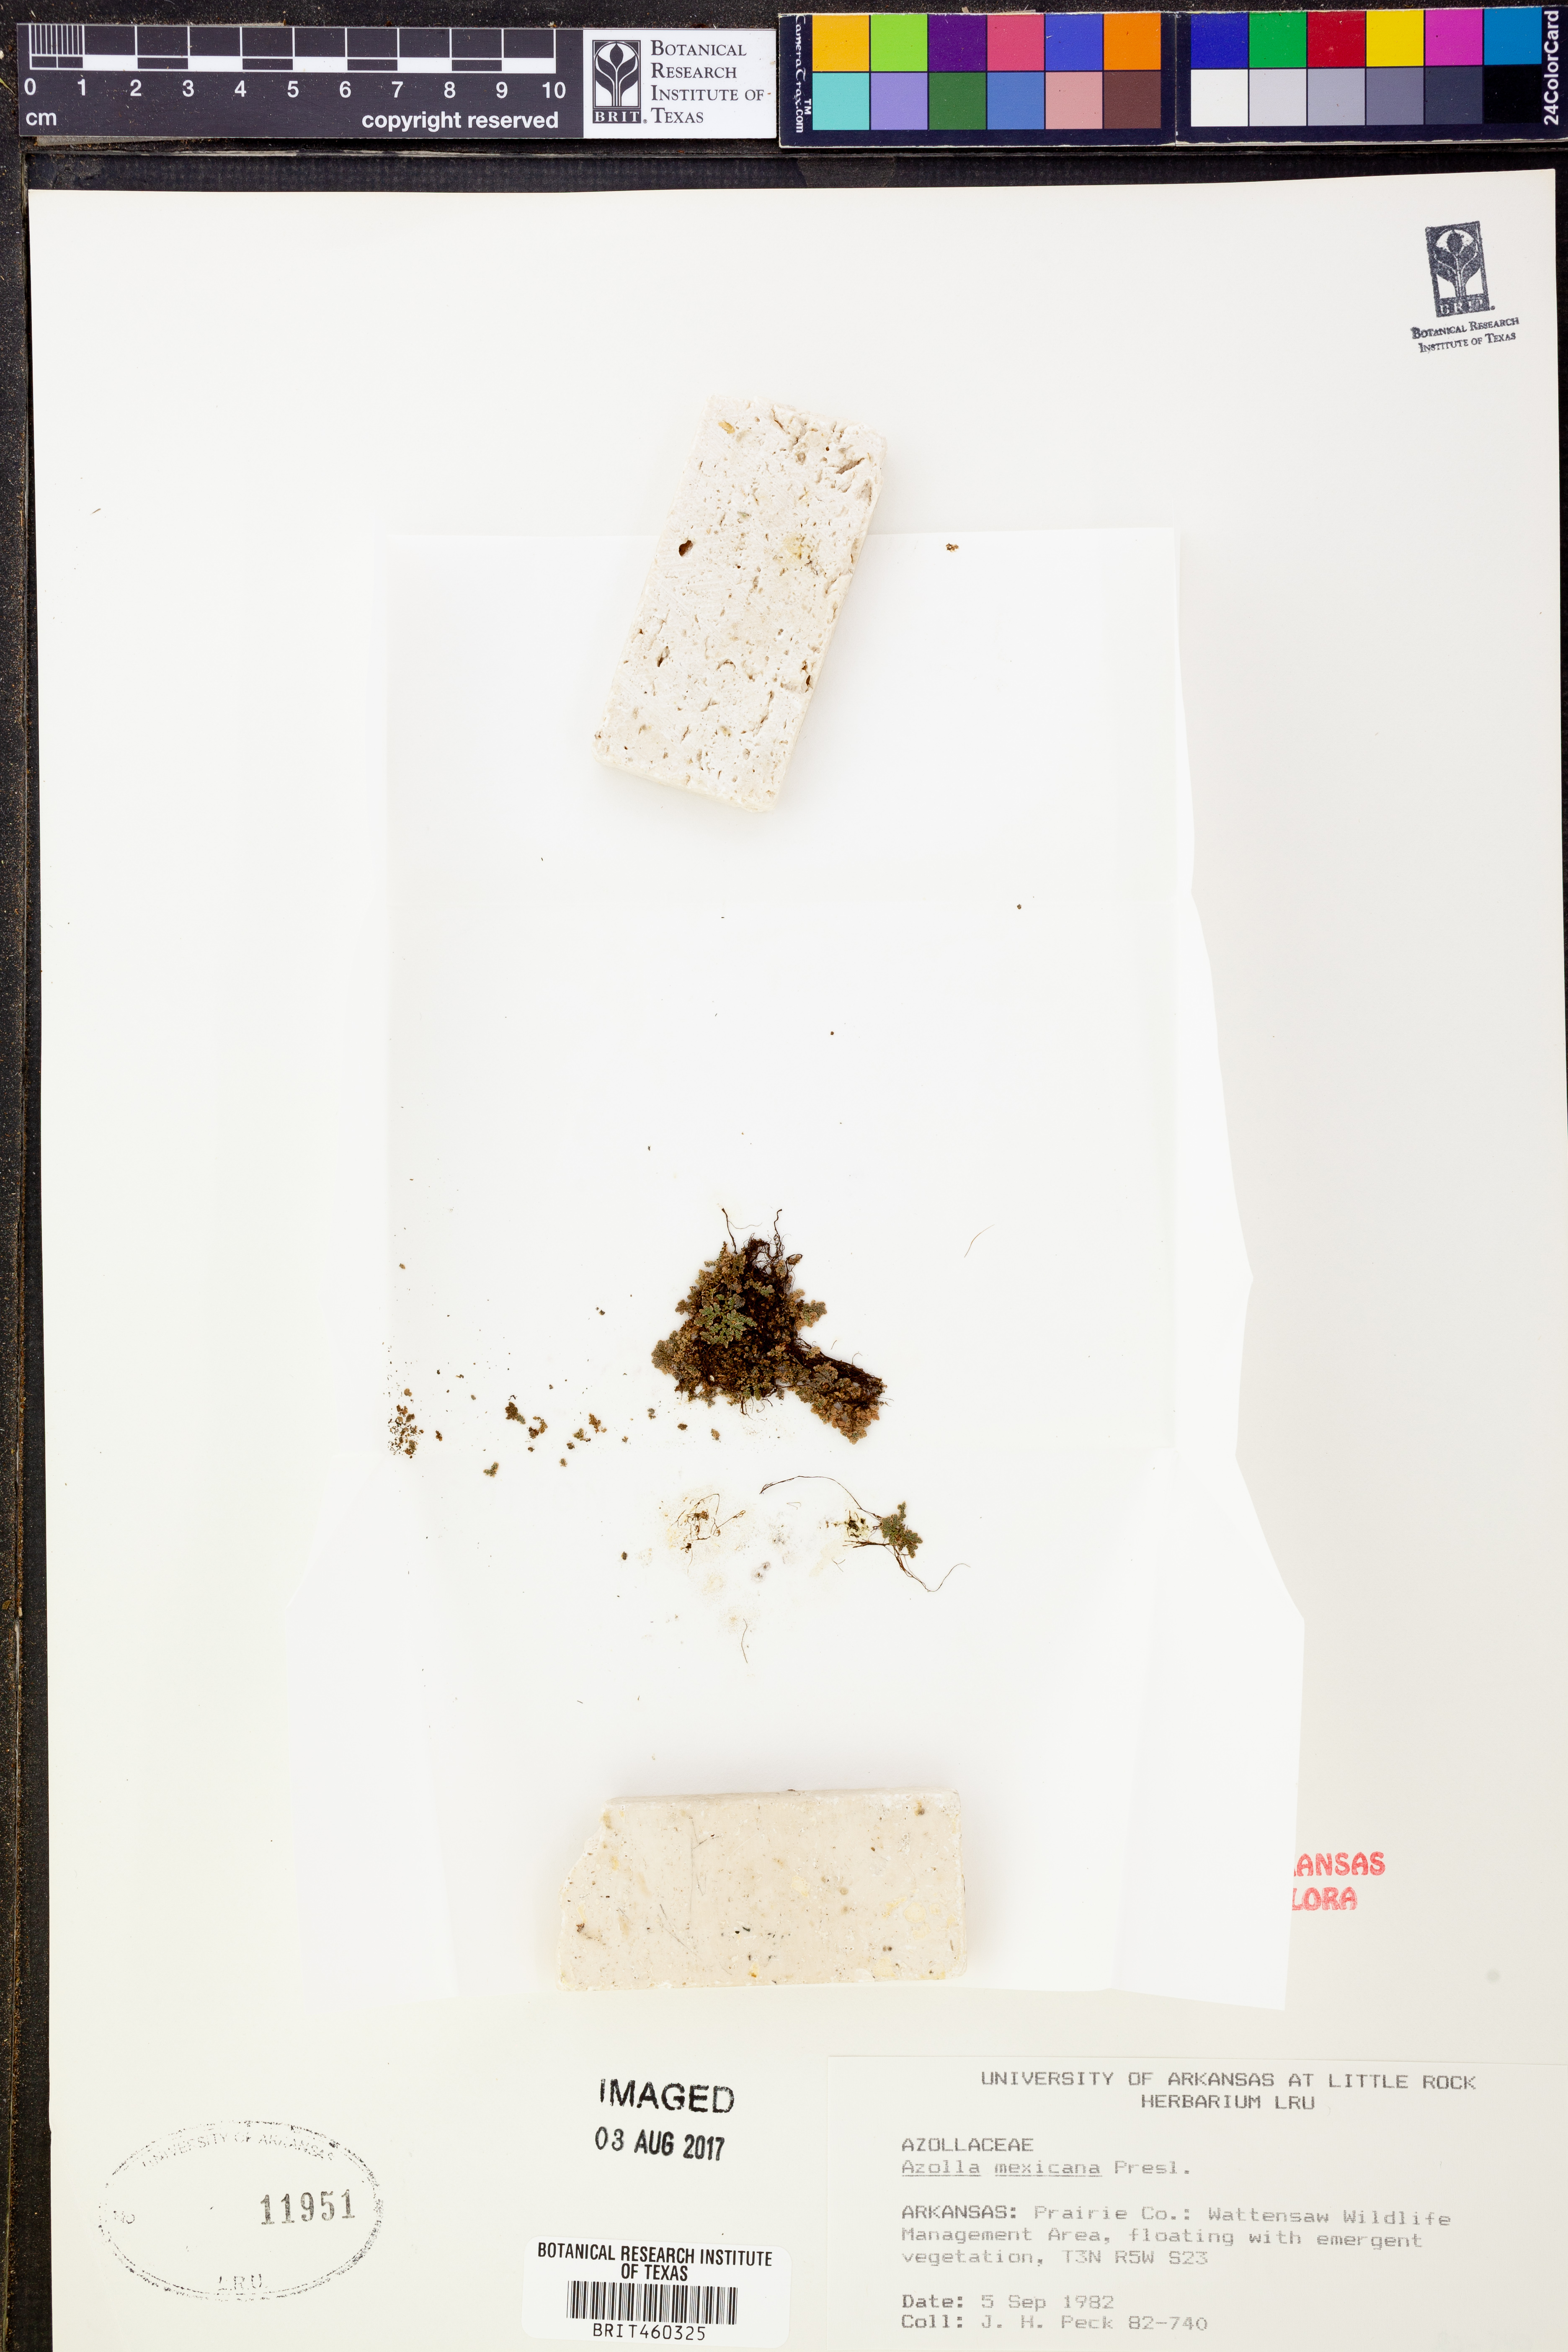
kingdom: Plantae
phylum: Tracheophyta
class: Polypodiopsida
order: Salviniales
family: Salviniaceae
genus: Azolla
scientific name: Azolla cristata
